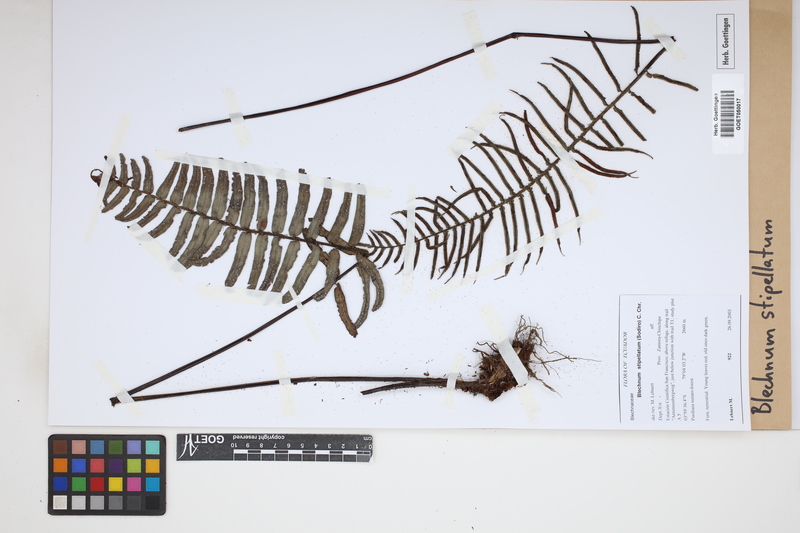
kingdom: Plantae
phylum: Tracheophyta
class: Polypodiopsida
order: Polypodiales
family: Blechnaceae
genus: Parablechnum
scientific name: Parablechnum stipitellatum
